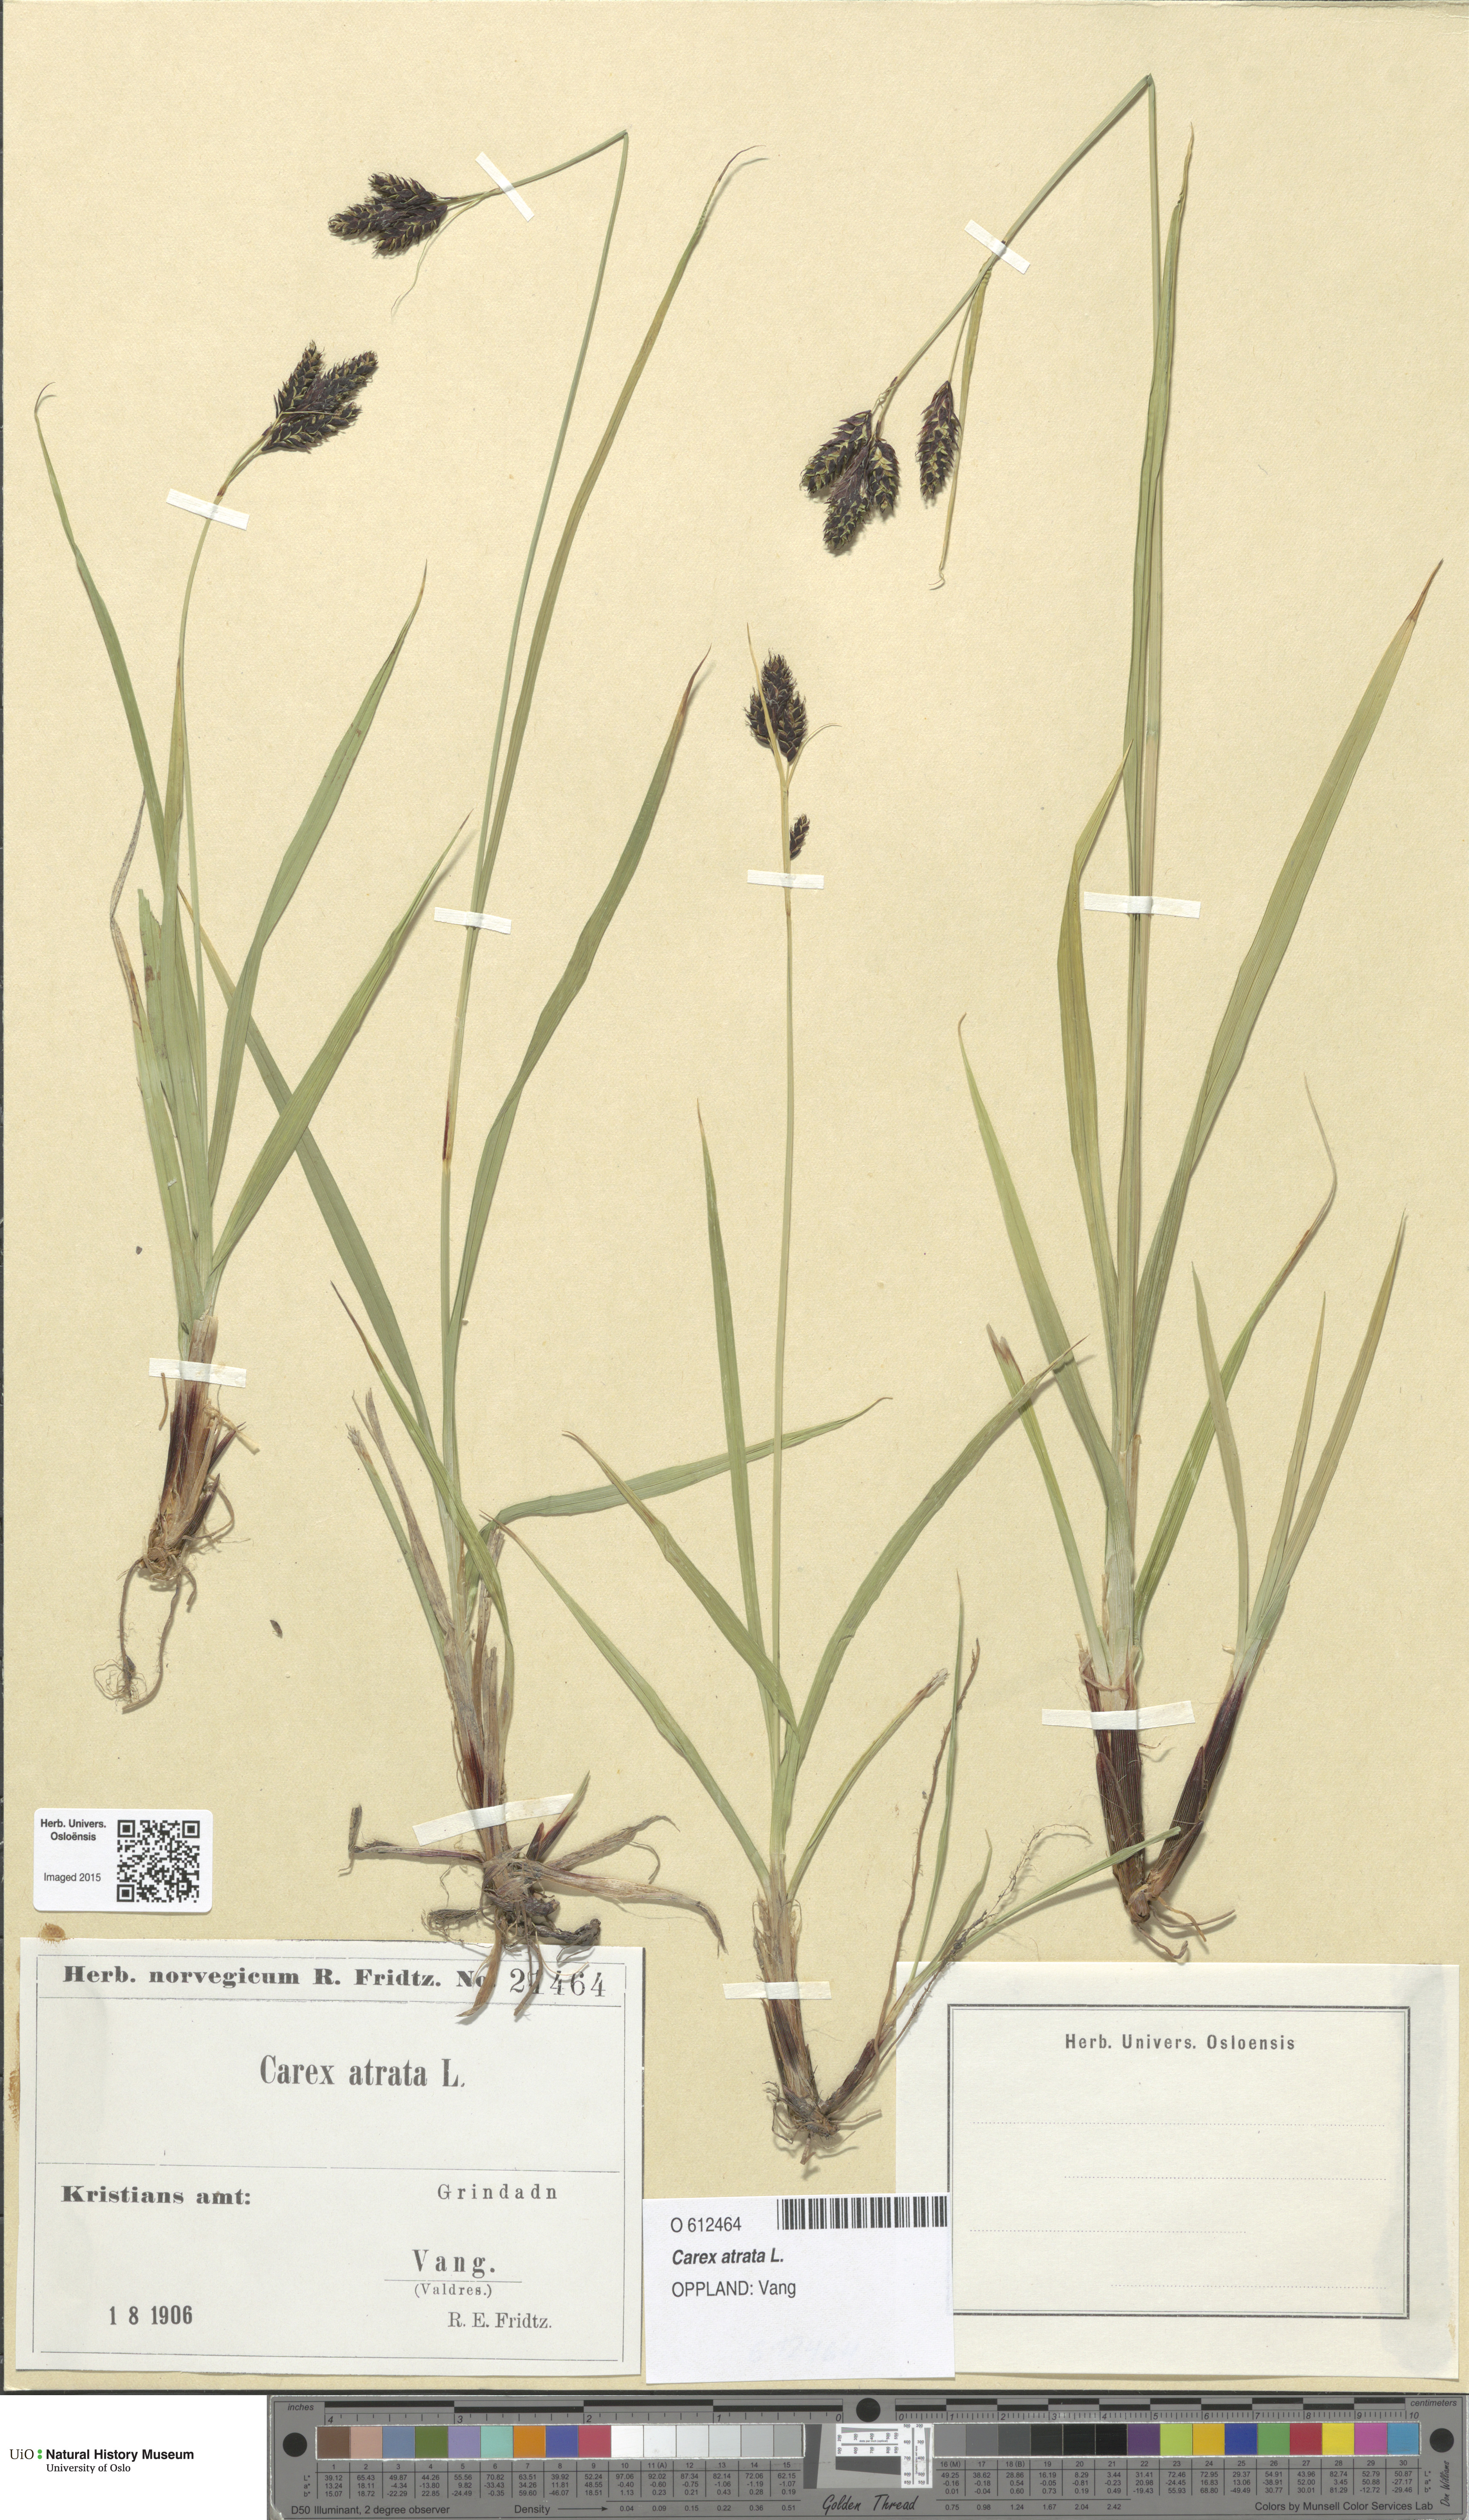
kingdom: Plantae
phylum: Tracheophyta
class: Liliopsida
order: Poales
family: Cyperaceae
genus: Carex
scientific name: Carex atrata
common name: Black alpine sedge
